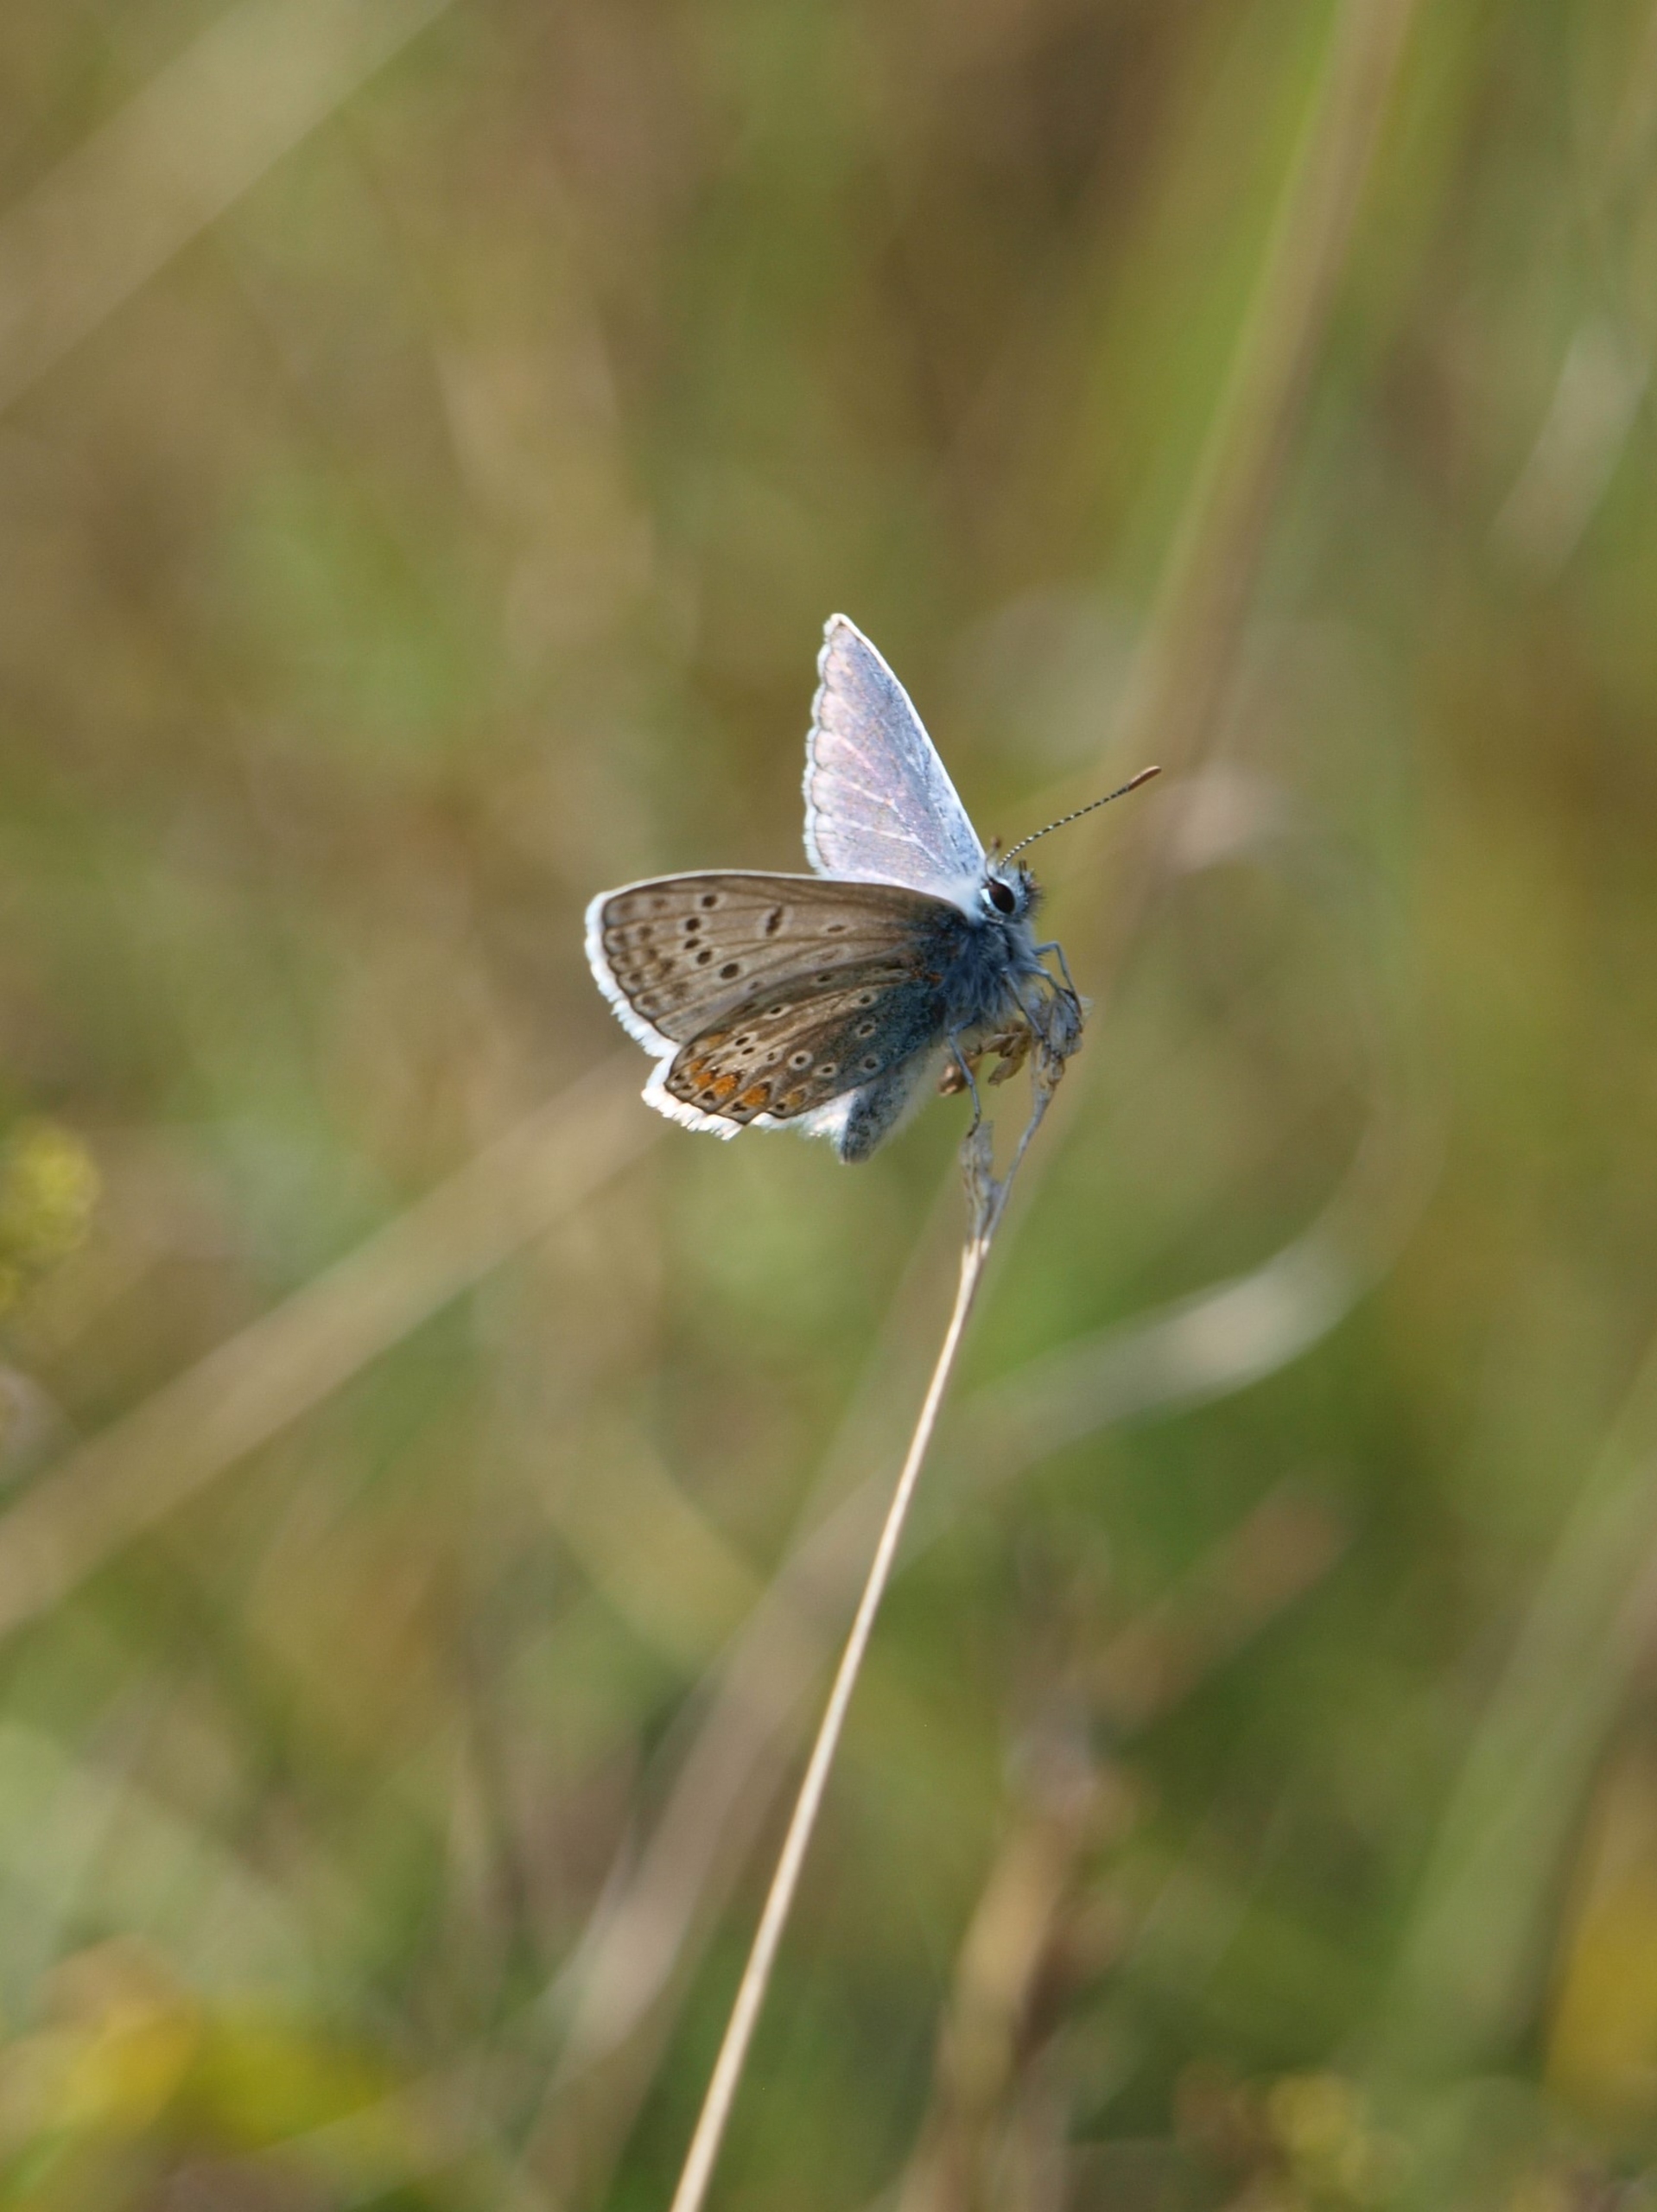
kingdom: Animalia
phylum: Arthropoda
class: Insecta
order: Lepidoptera
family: Lycaenidae
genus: Polyommatus
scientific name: Polyommatus icarus
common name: Almindelig blåfugl
